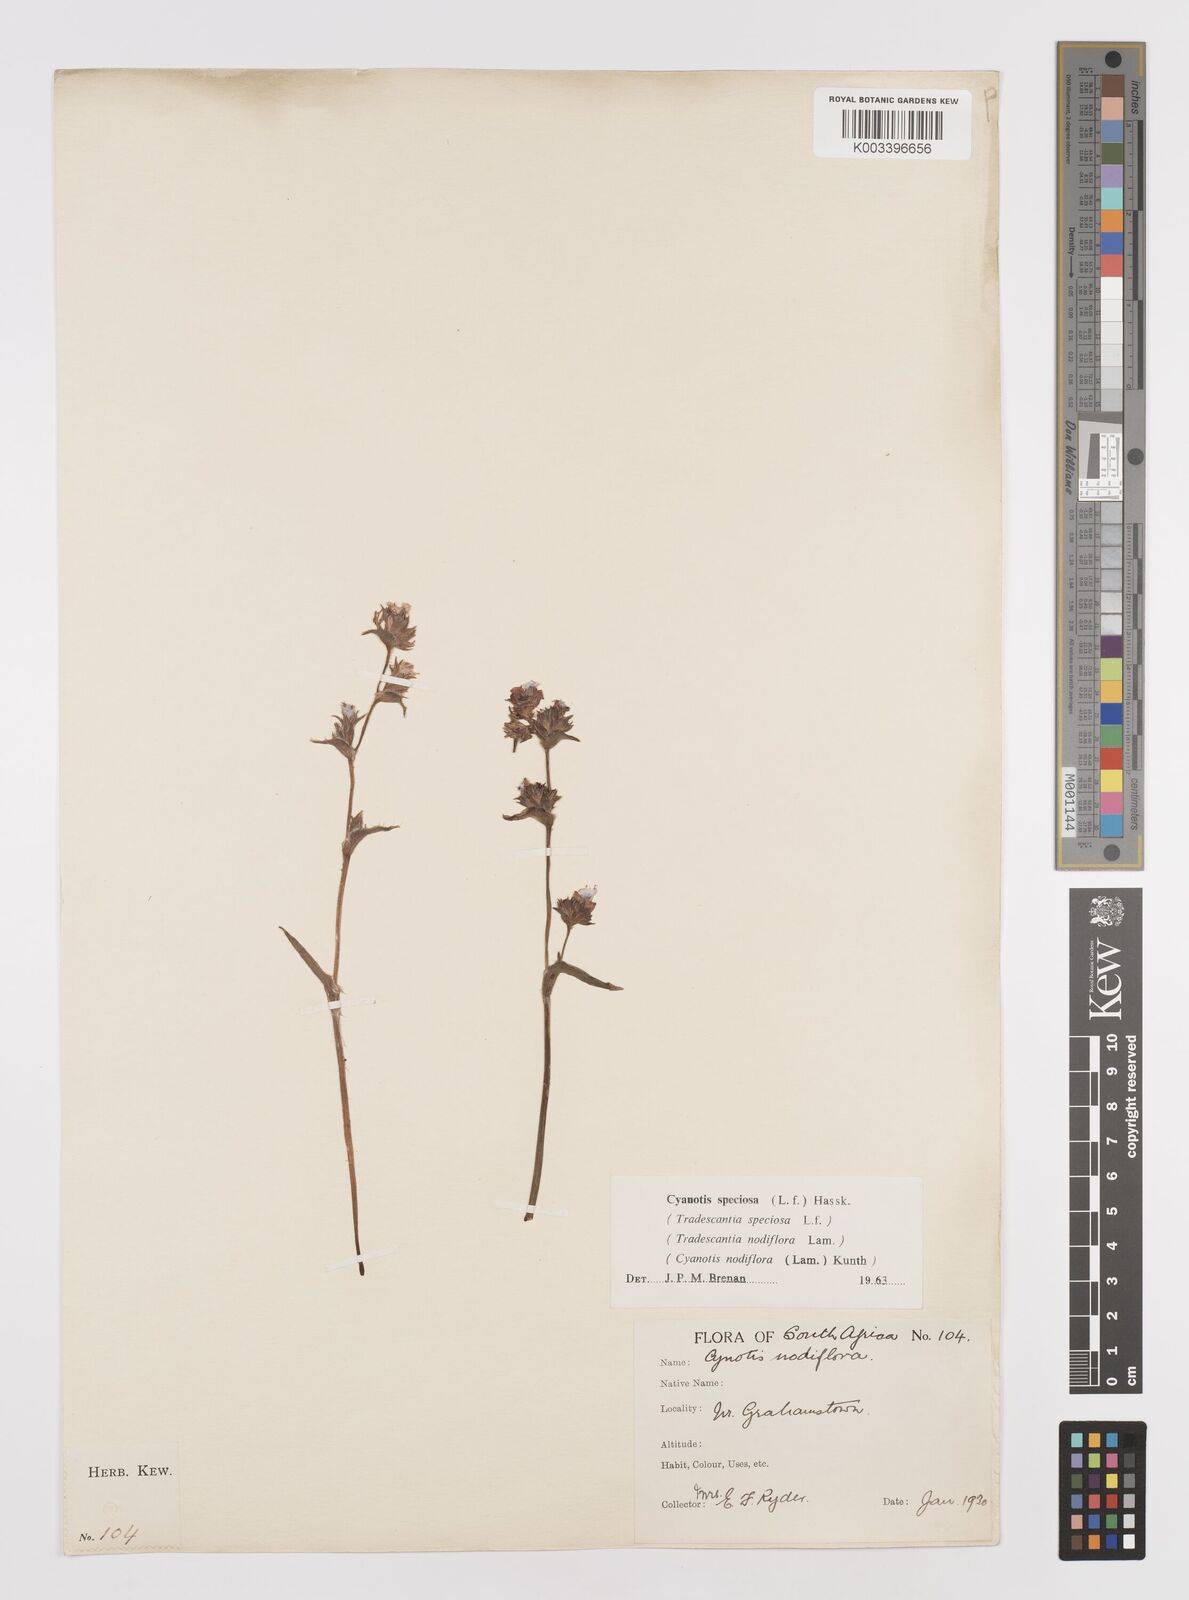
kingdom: Plantae
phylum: Tracheophyta
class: Liliopsida
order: Commelinales
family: Commelinaceae
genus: Cyanotis
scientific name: Cyanotis speciosa
